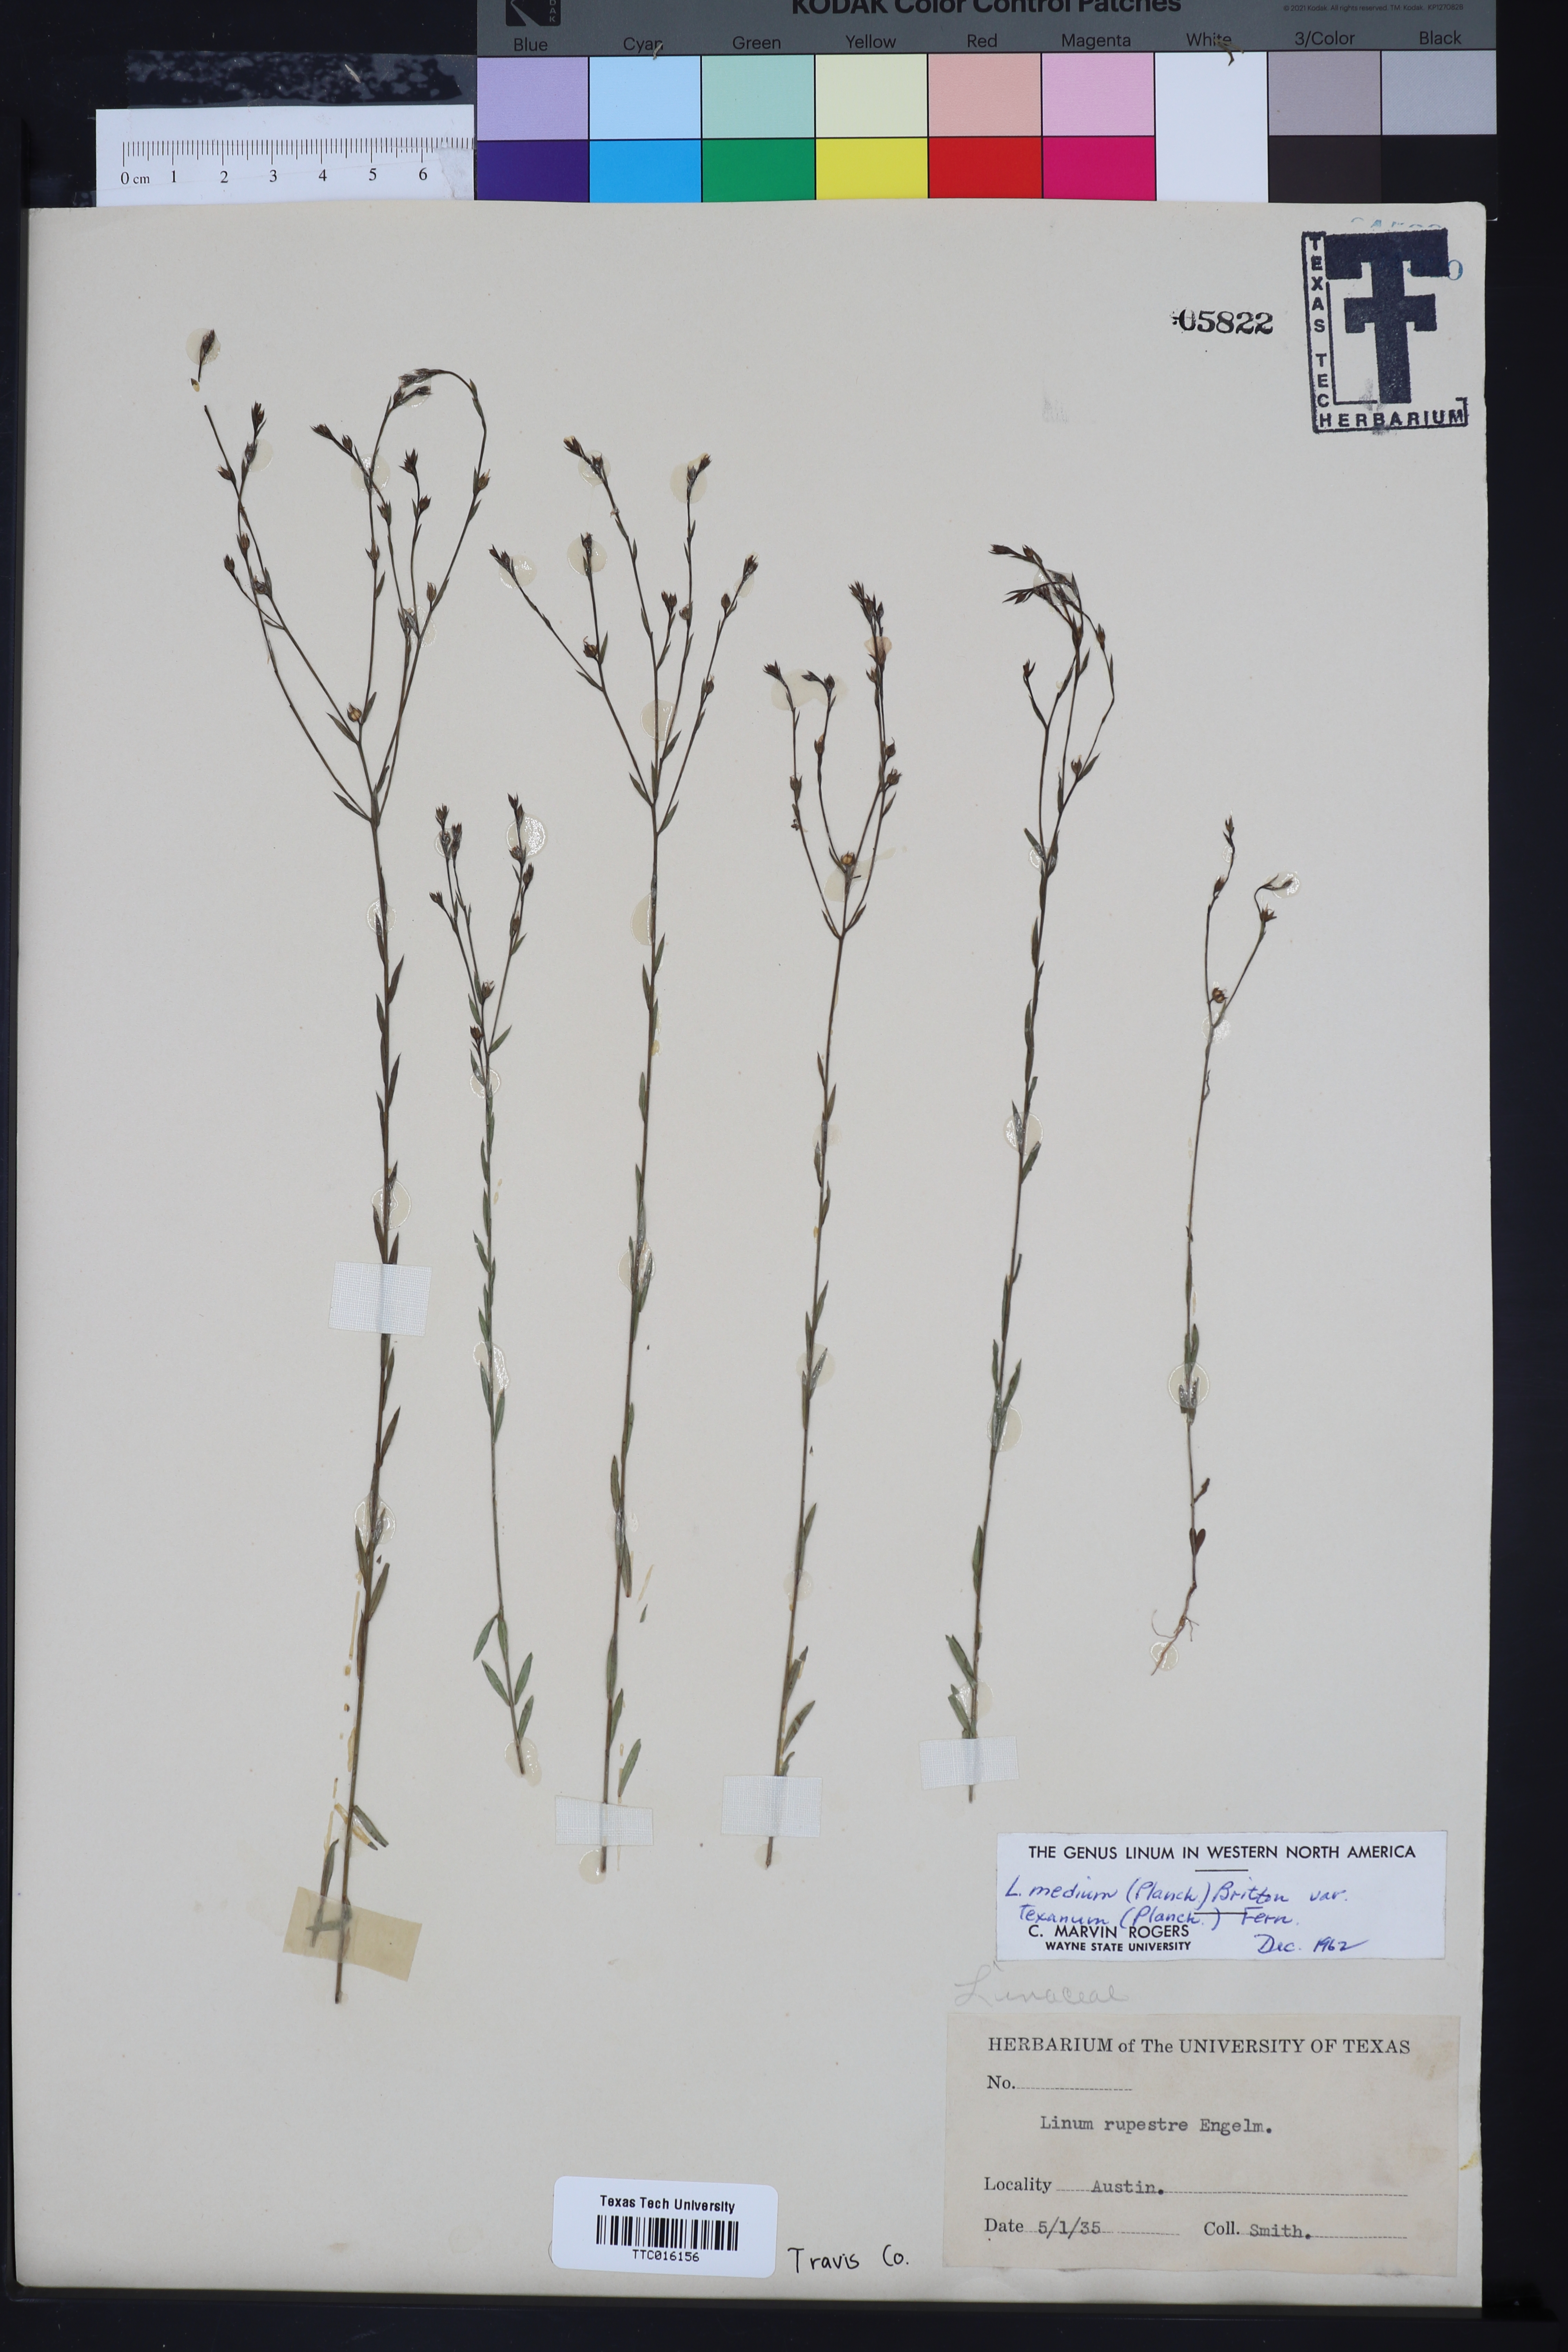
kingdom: Plantae
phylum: Tracheophyta
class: Magnoliopsida
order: Malpighiales
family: Linaceae
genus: Linum
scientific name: Linum medium
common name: Stiff yellow flax
